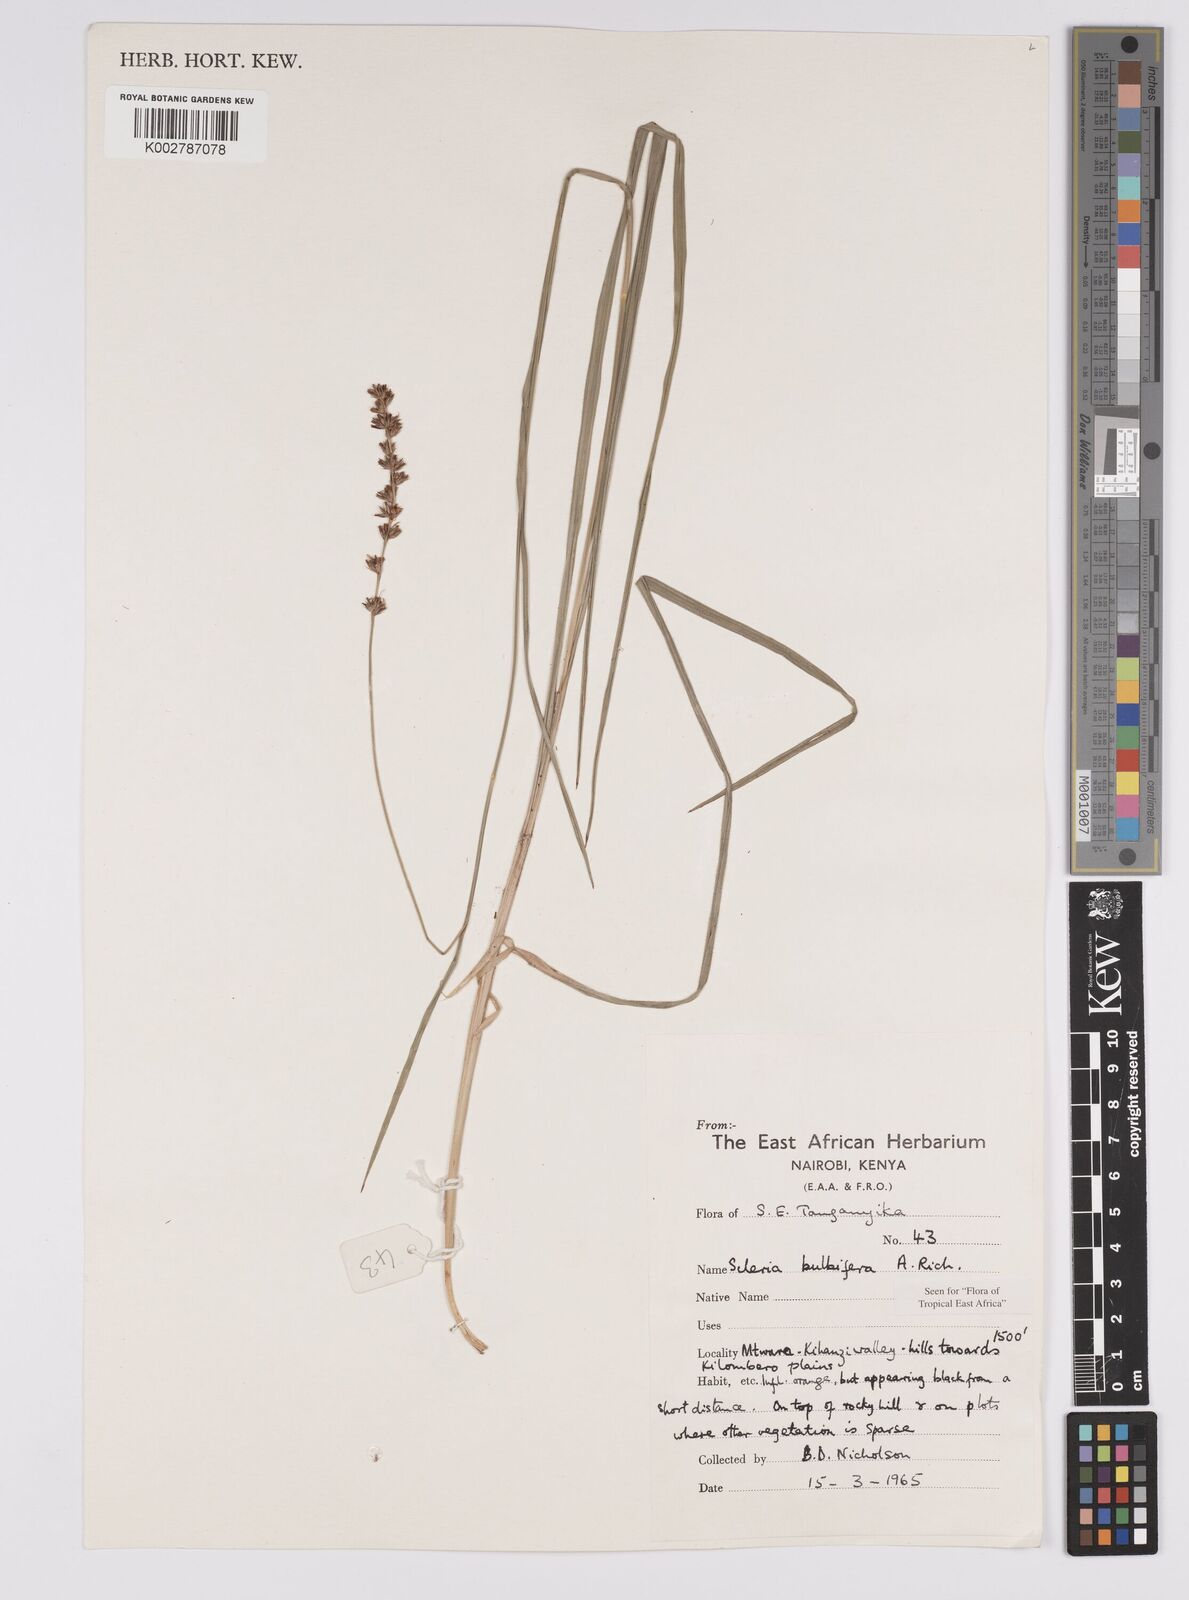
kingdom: Plantae
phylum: Tracheophyta
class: Liliopsida
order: Poales
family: Cyperaceae
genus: Scleria
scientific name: Scleria bulbifera
